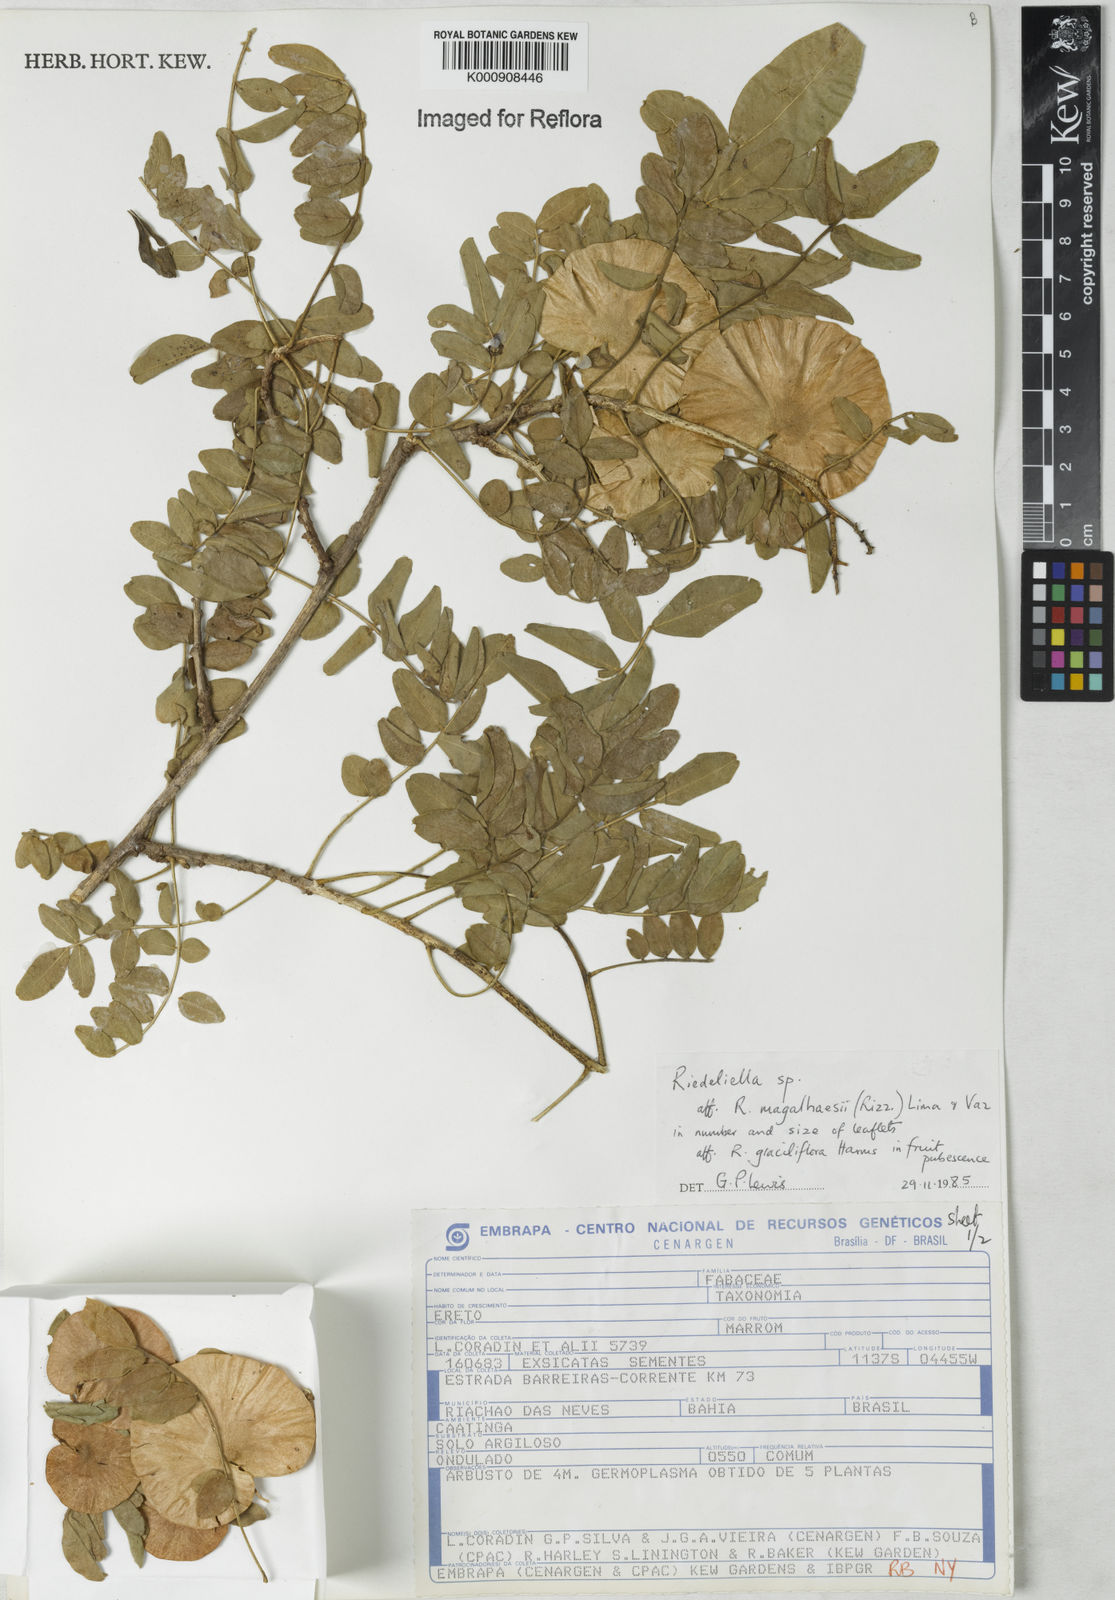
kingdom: Plantae
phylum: Tracheophyta
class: Magnoliopsida
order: Fabales
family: Fabaceae
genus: Riedeliella
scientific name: Riedeliella
